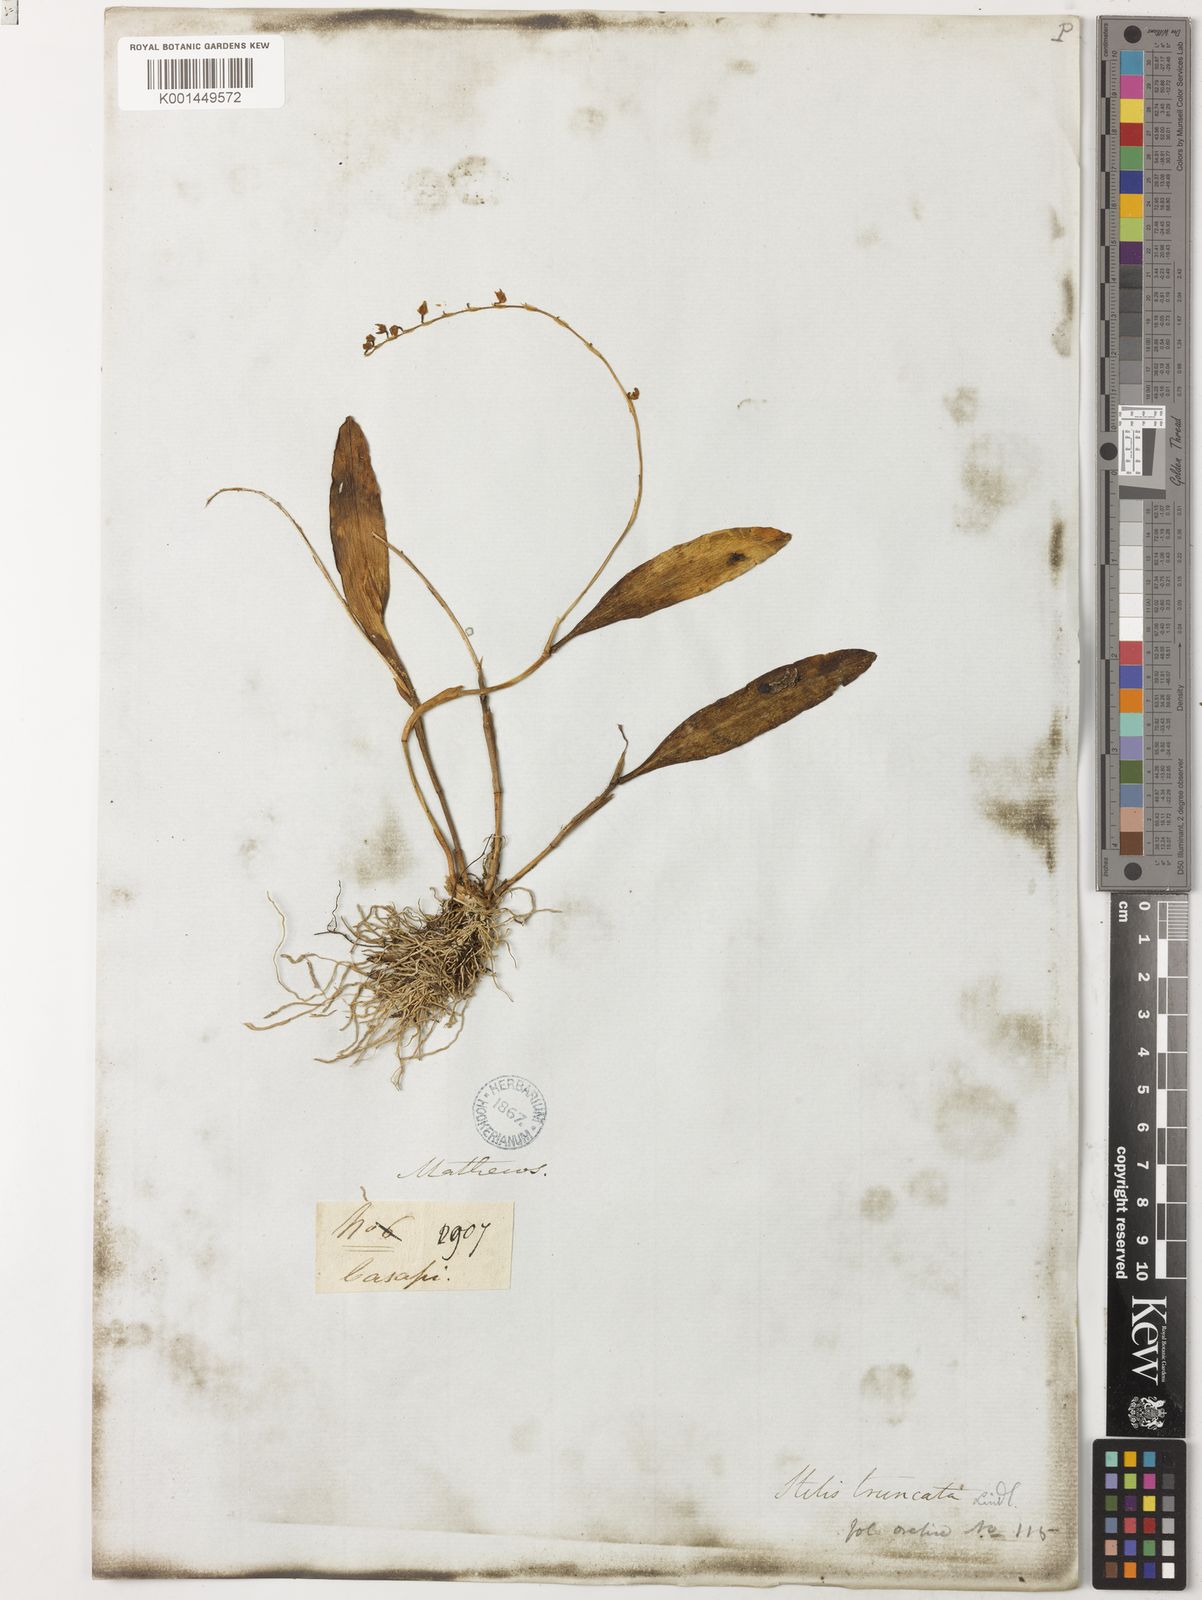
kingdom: Plantae
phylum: Tracheophyta
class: Liliopsida
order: Asparagales
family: Orchidaceae
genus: Stelis
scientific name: Stelis truncata
